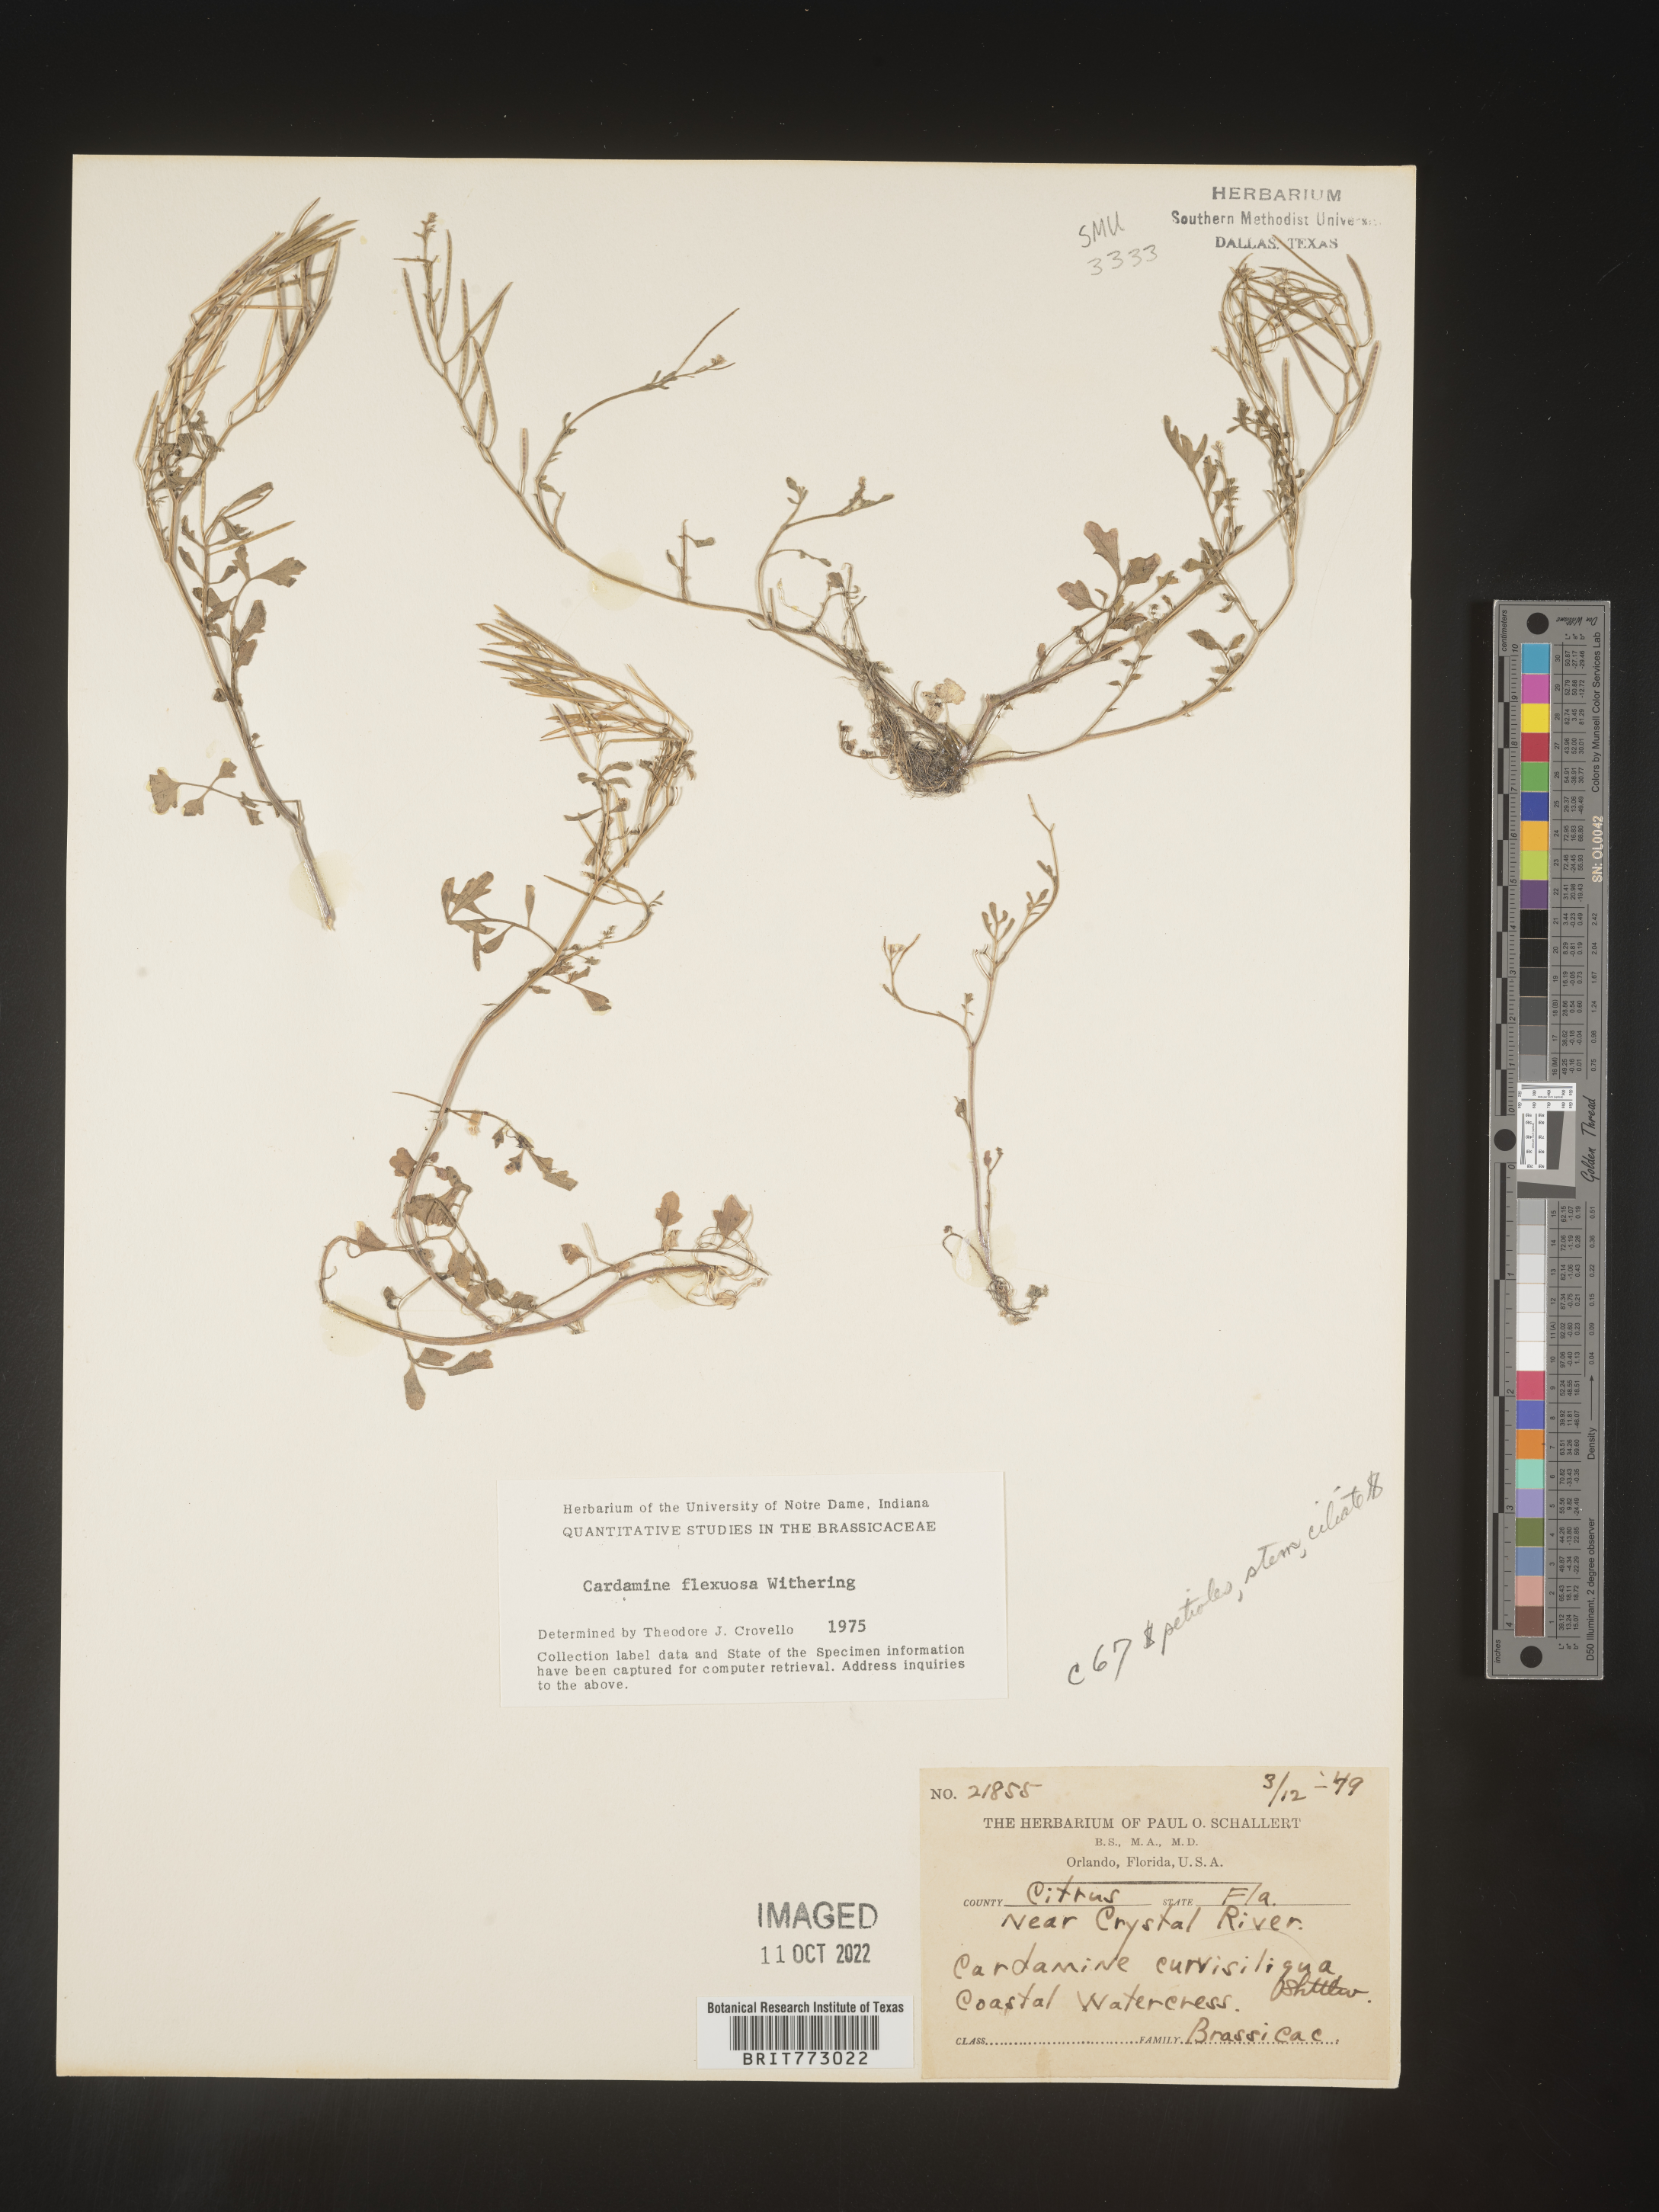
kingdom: Plantae
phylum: Tracheophyta
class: Magnoliopsida
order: Brassicales
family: Brassicaceae
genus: Cardamine
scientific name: Cardamine
